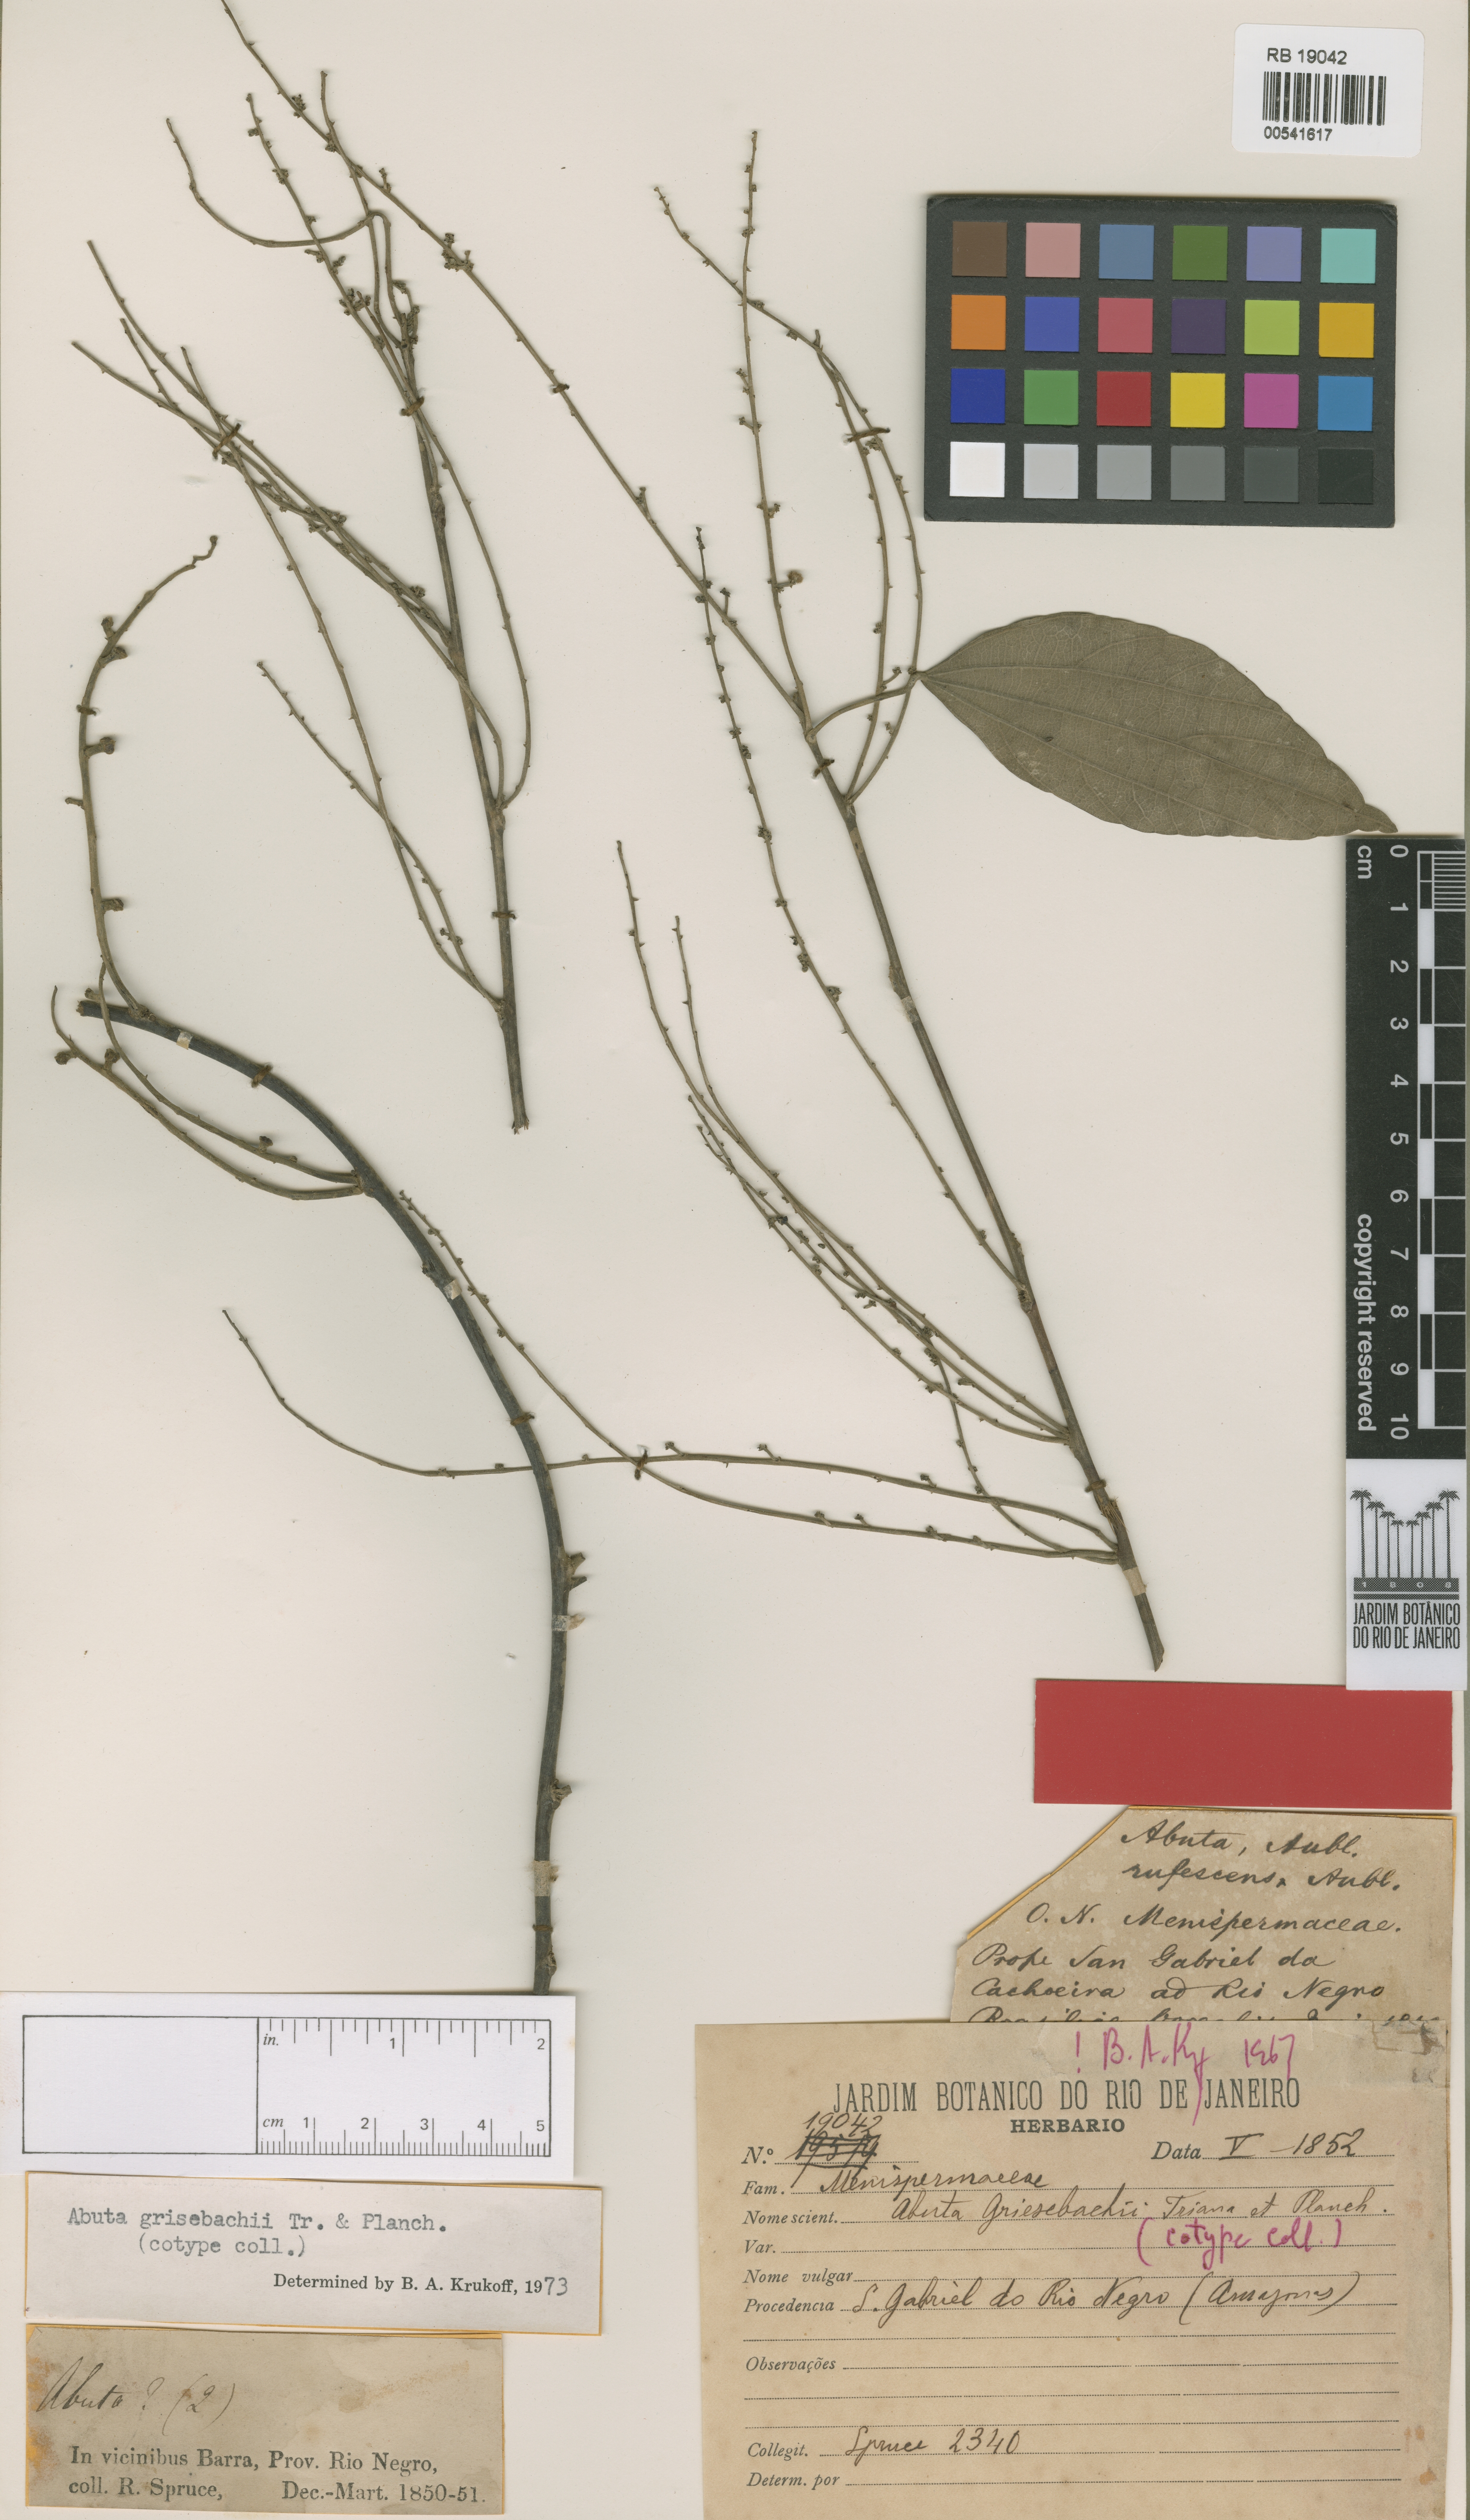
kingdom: Plantae
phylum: Tracheophyta
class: Magnoliopsida
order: Ranunculales
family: Menispermaceae
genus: Abuta
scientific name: Abuta grisebachii
